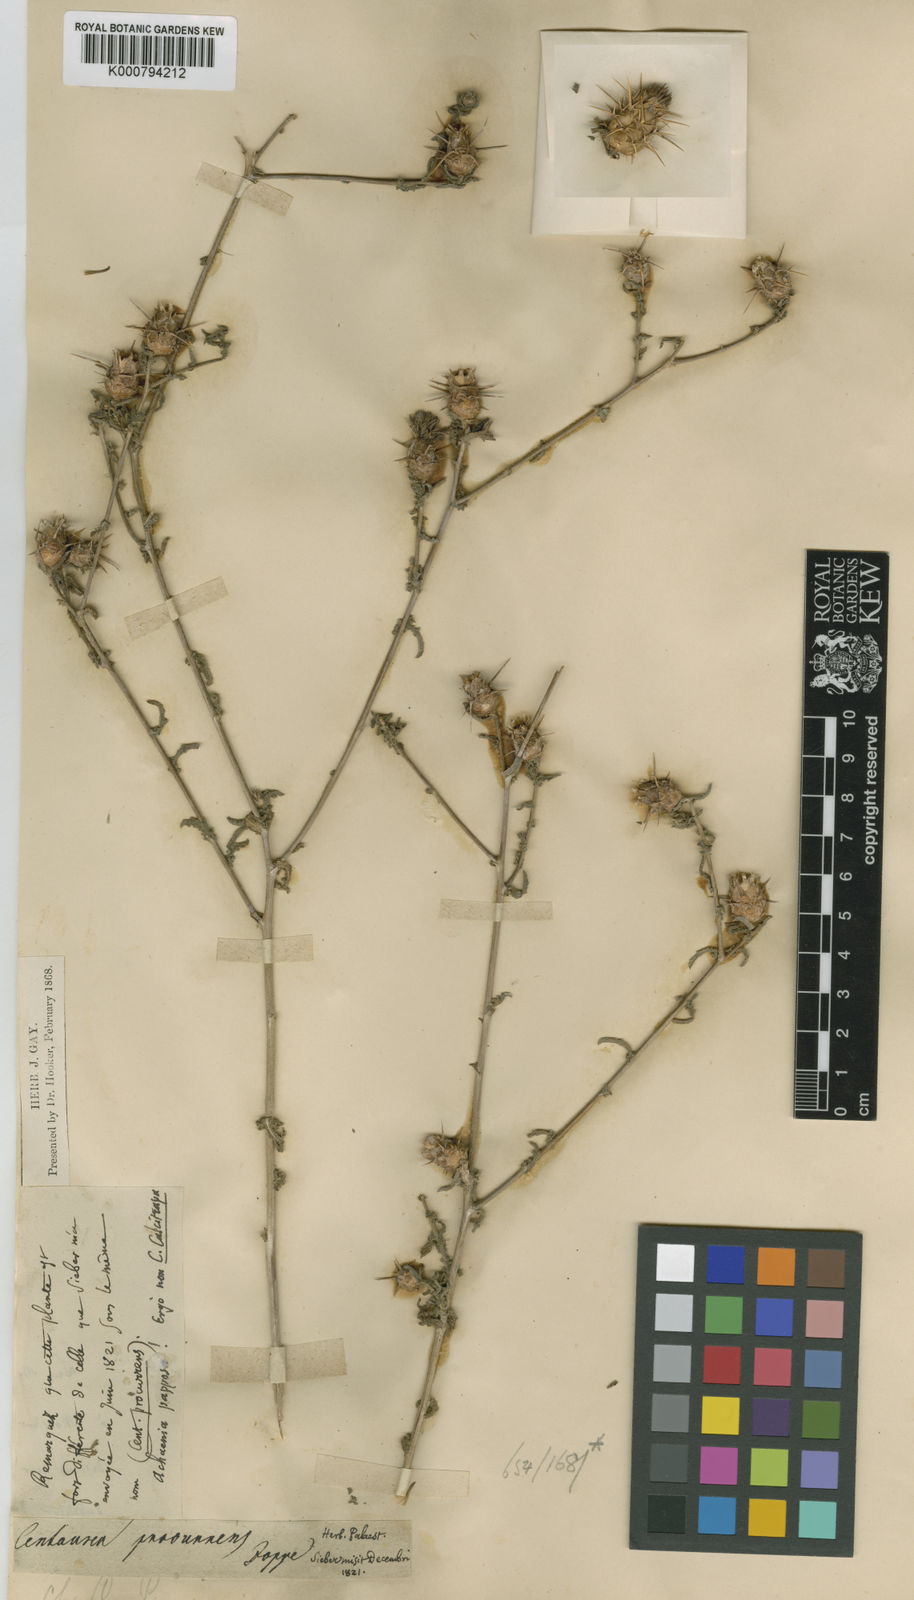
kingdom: Plantae
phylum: Tracheophyta
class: Magnoliopsida
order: Asterales
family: Asteraceae
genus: Centaurea
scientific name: Centaurea jordaniana
